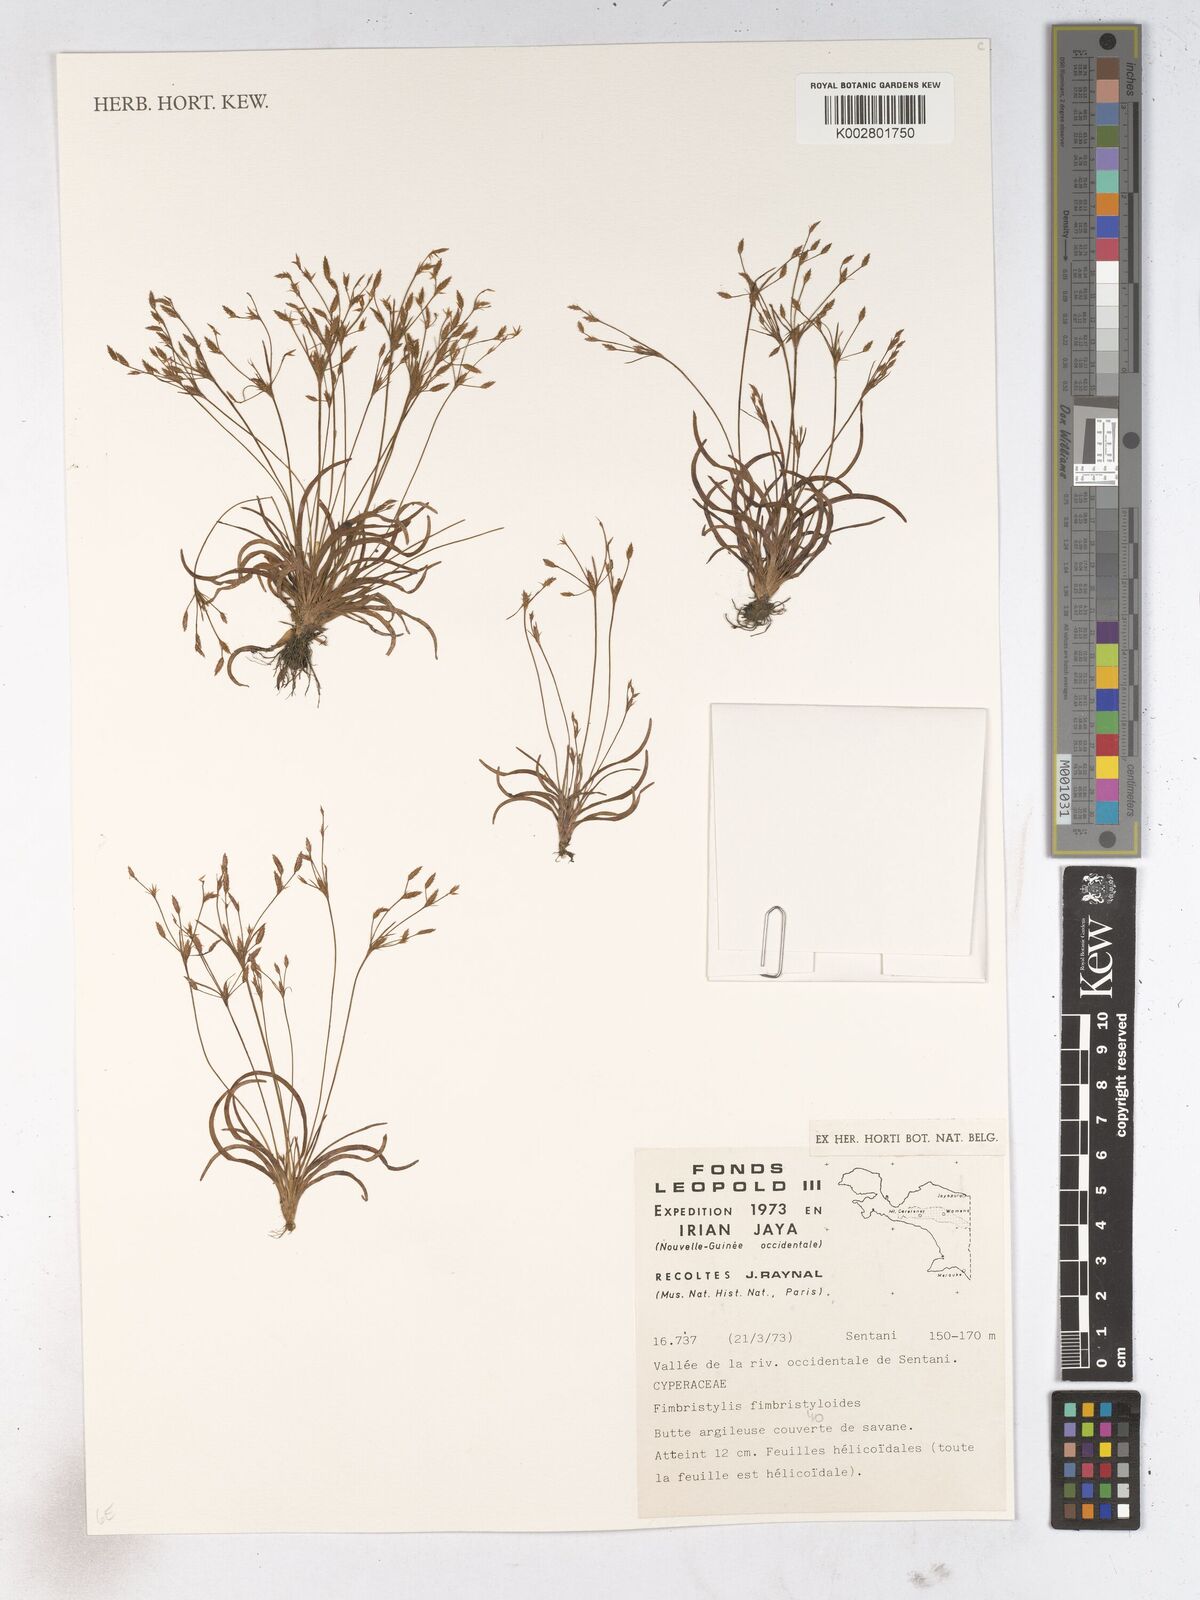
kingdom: Plantae
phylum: Tracheophyta
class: Liliopsida
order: Poales
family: Cyperaceae
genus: Fimbristylis
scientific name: Fimbristylis fimbristyloides
